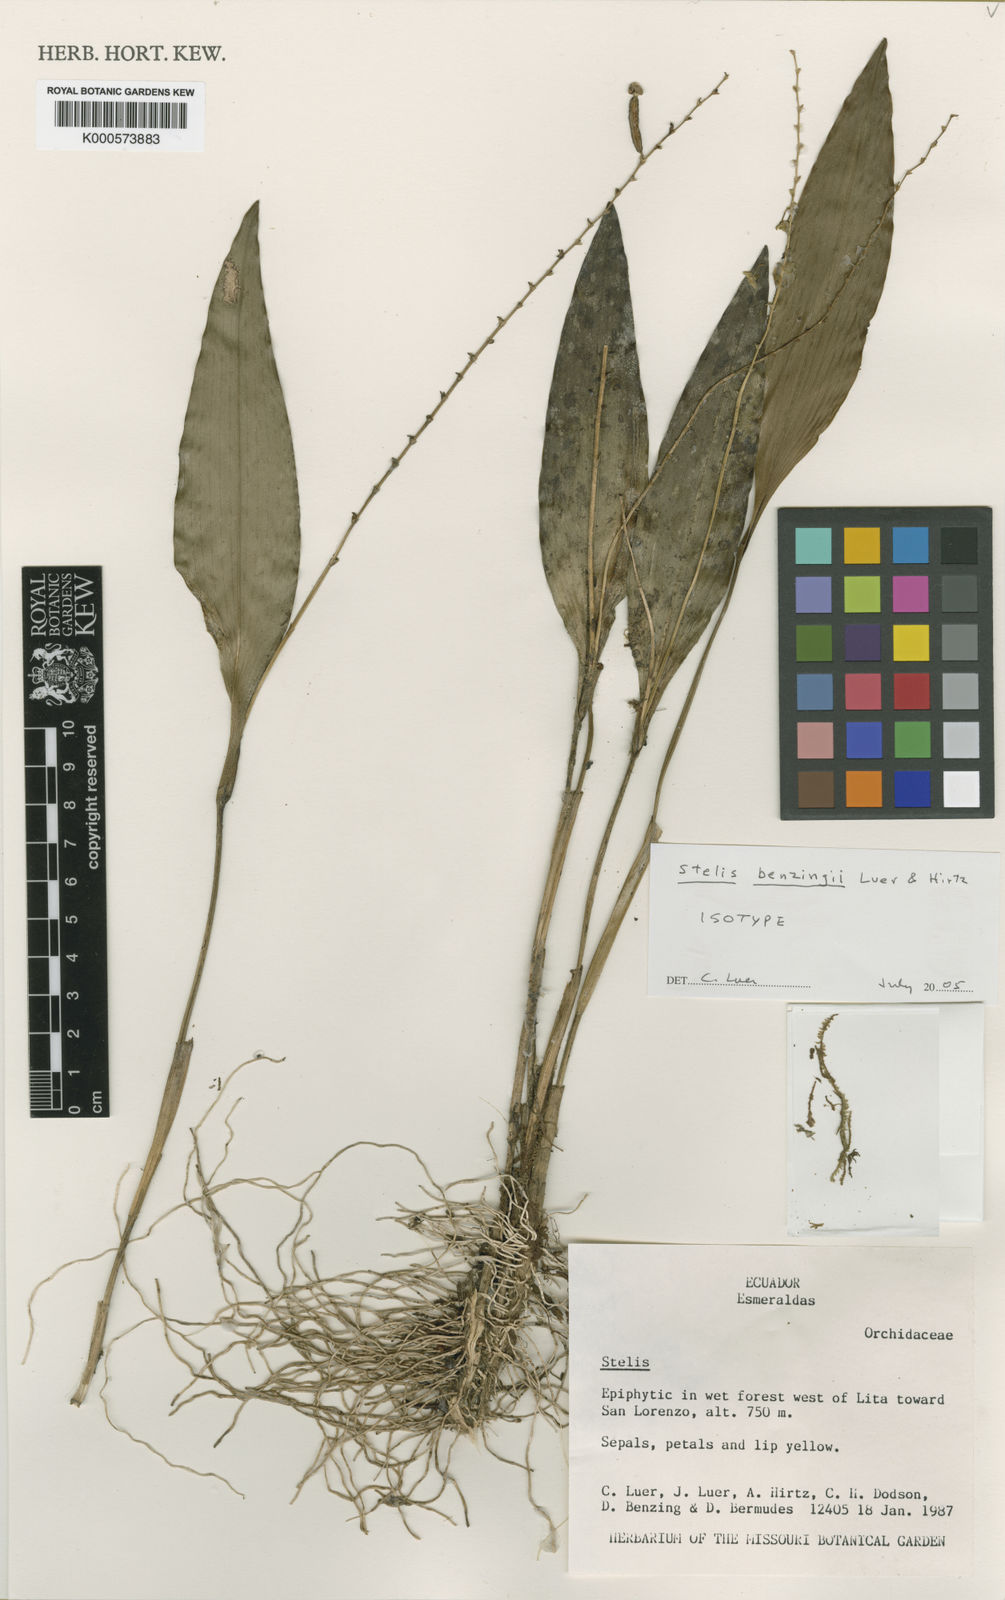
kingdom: Plantae
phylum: Tracheophyta
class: Liliopsida
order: Asparagales
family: Orchidaceae
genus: Stelis
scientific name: Stelis benzingii
